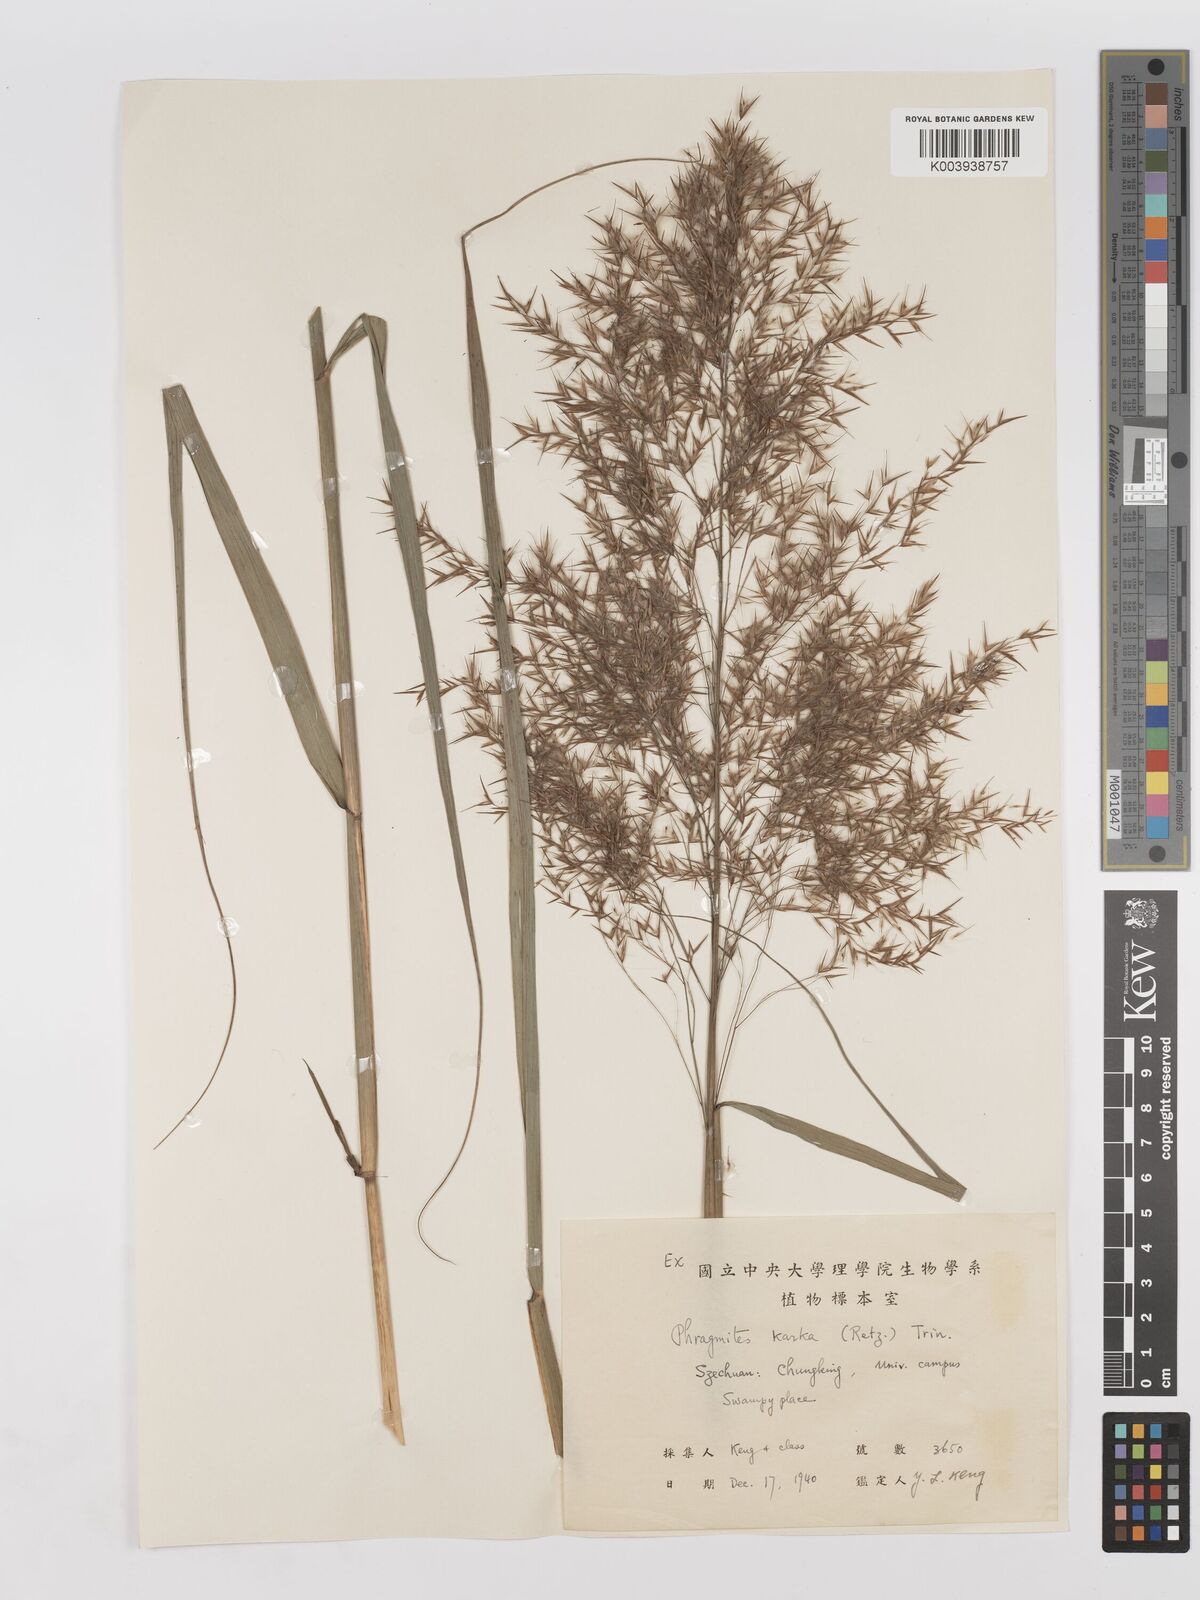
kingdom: Plantae
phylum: Tracheophyta
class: Liliopsida
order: Poales
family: Poaceae
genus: Phragmites
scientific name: Phragmites karka
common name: Tropical reed
